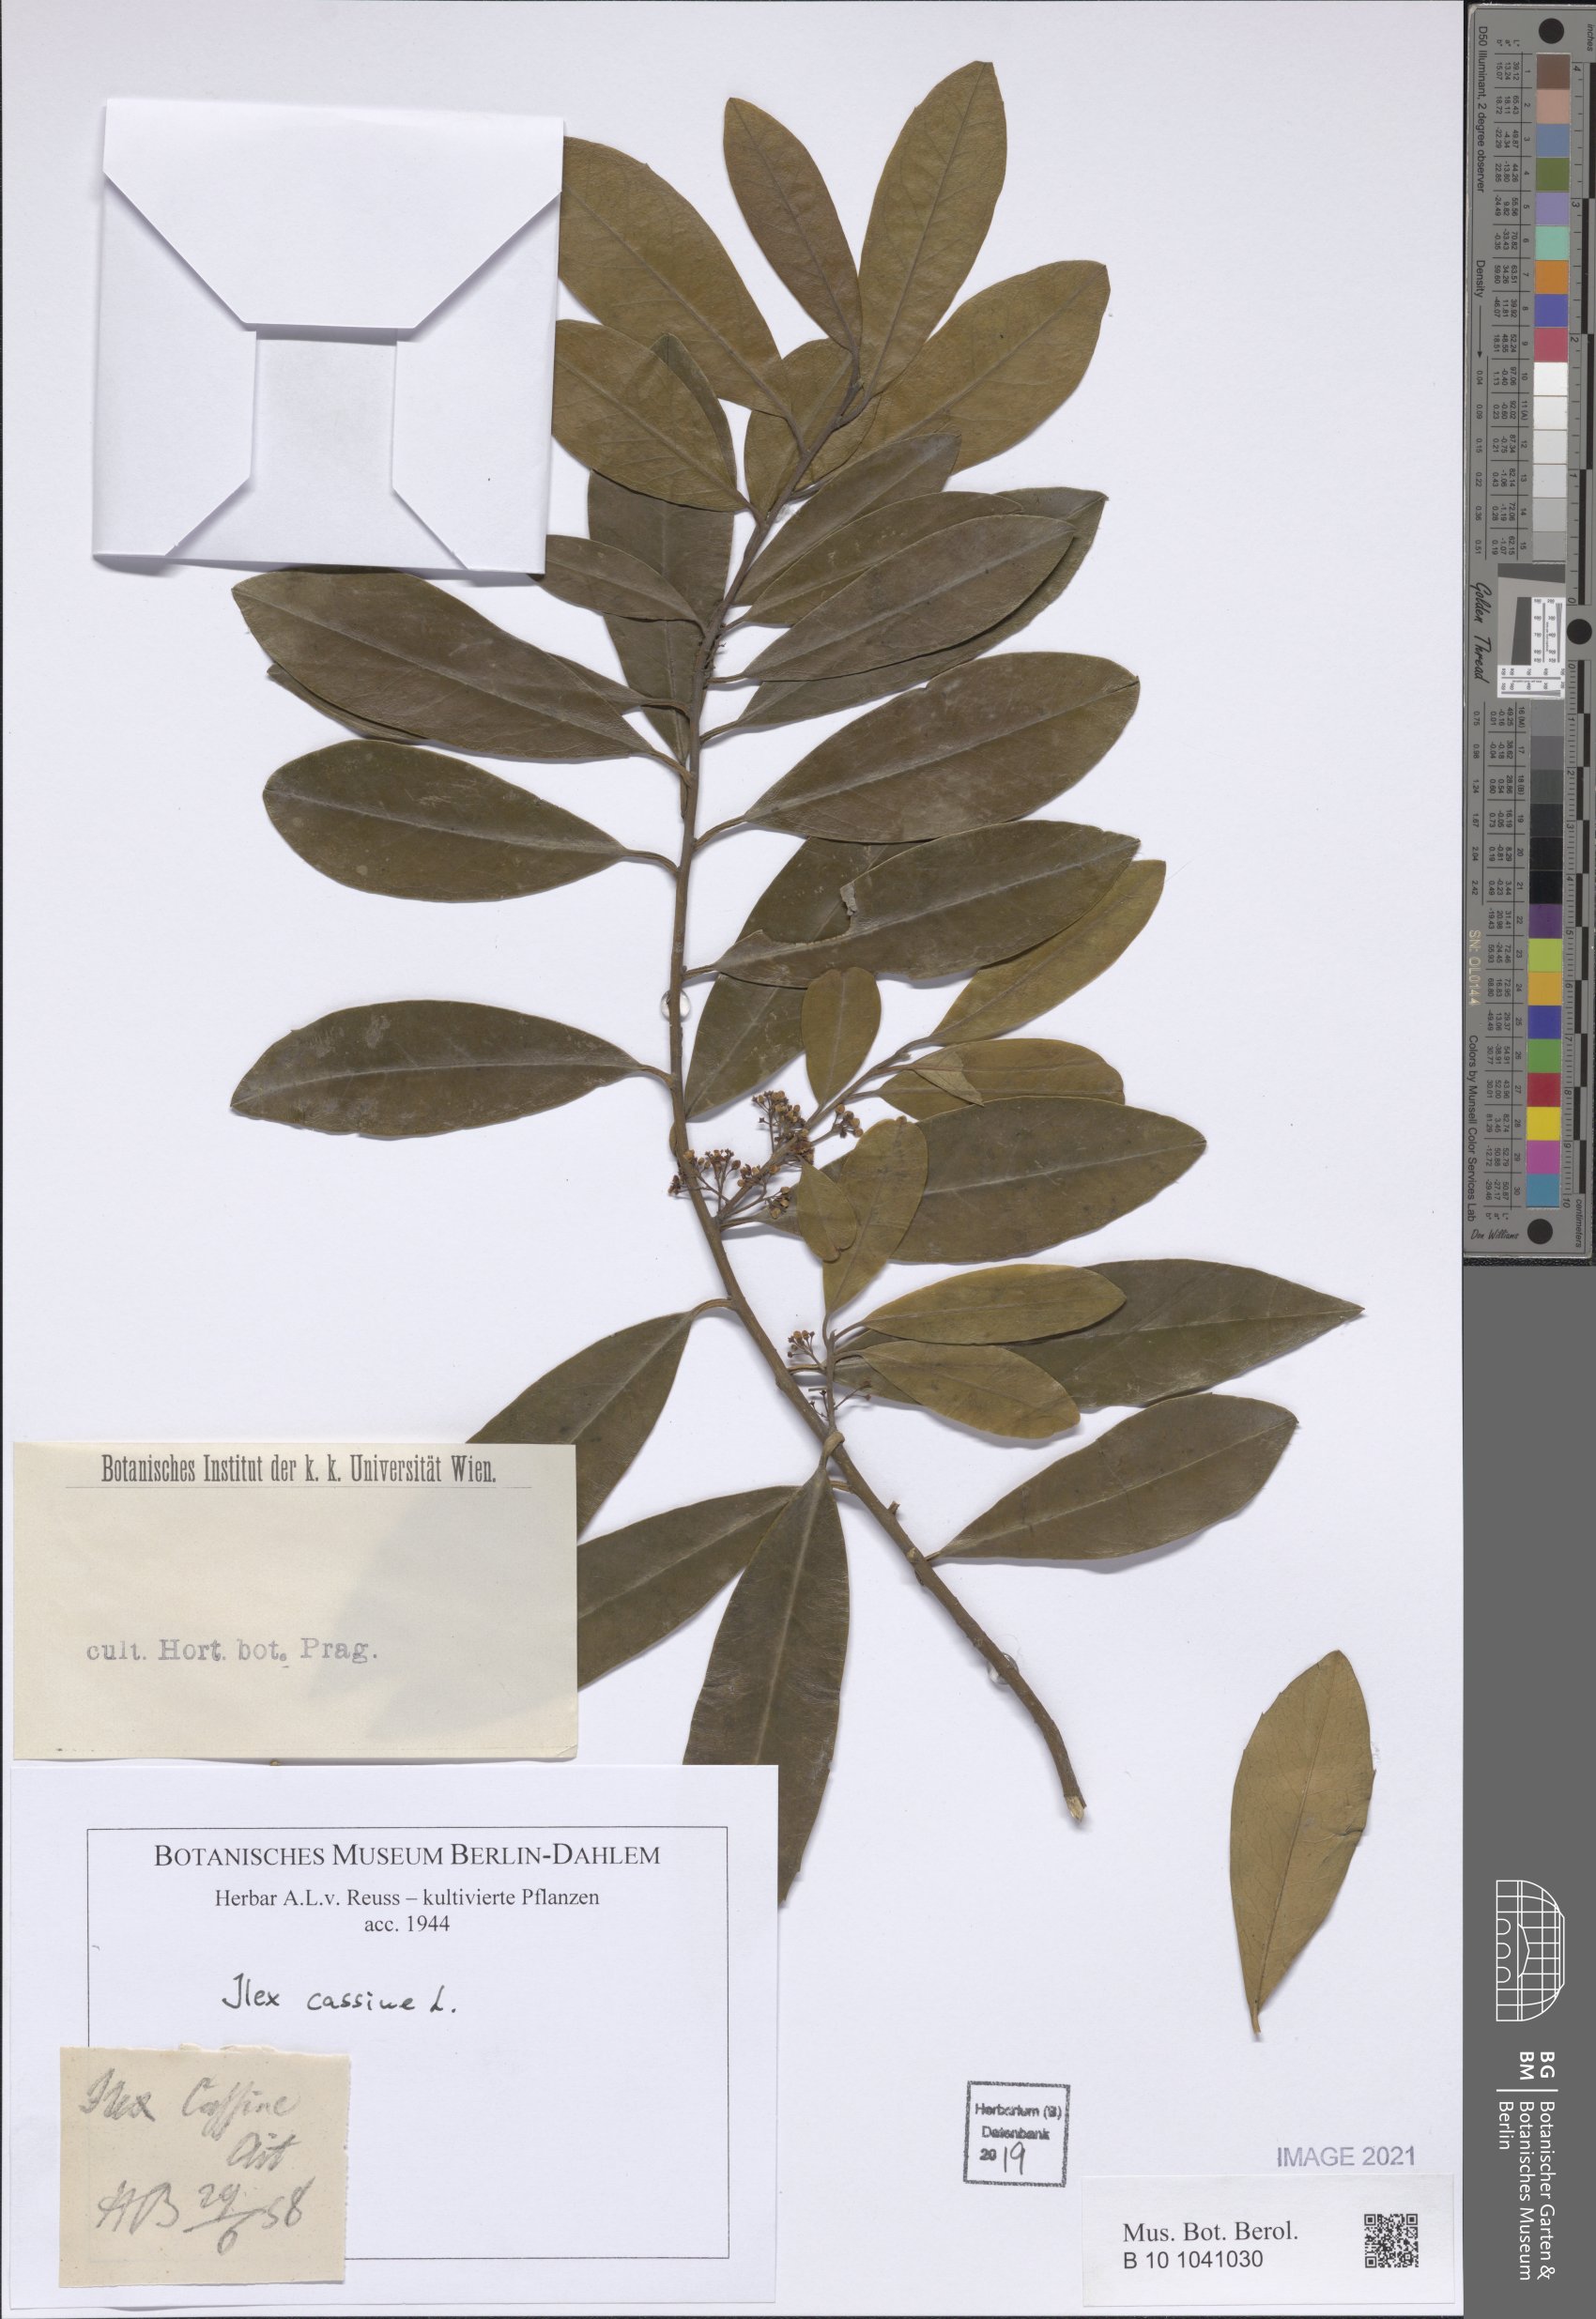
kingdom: Plantae
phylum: Tracheophyta
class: Magnoliopsida
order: Aquifoliales
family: Aquifoliaceae
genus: Ilex
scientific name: Ilex cassine
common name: Dahoon
